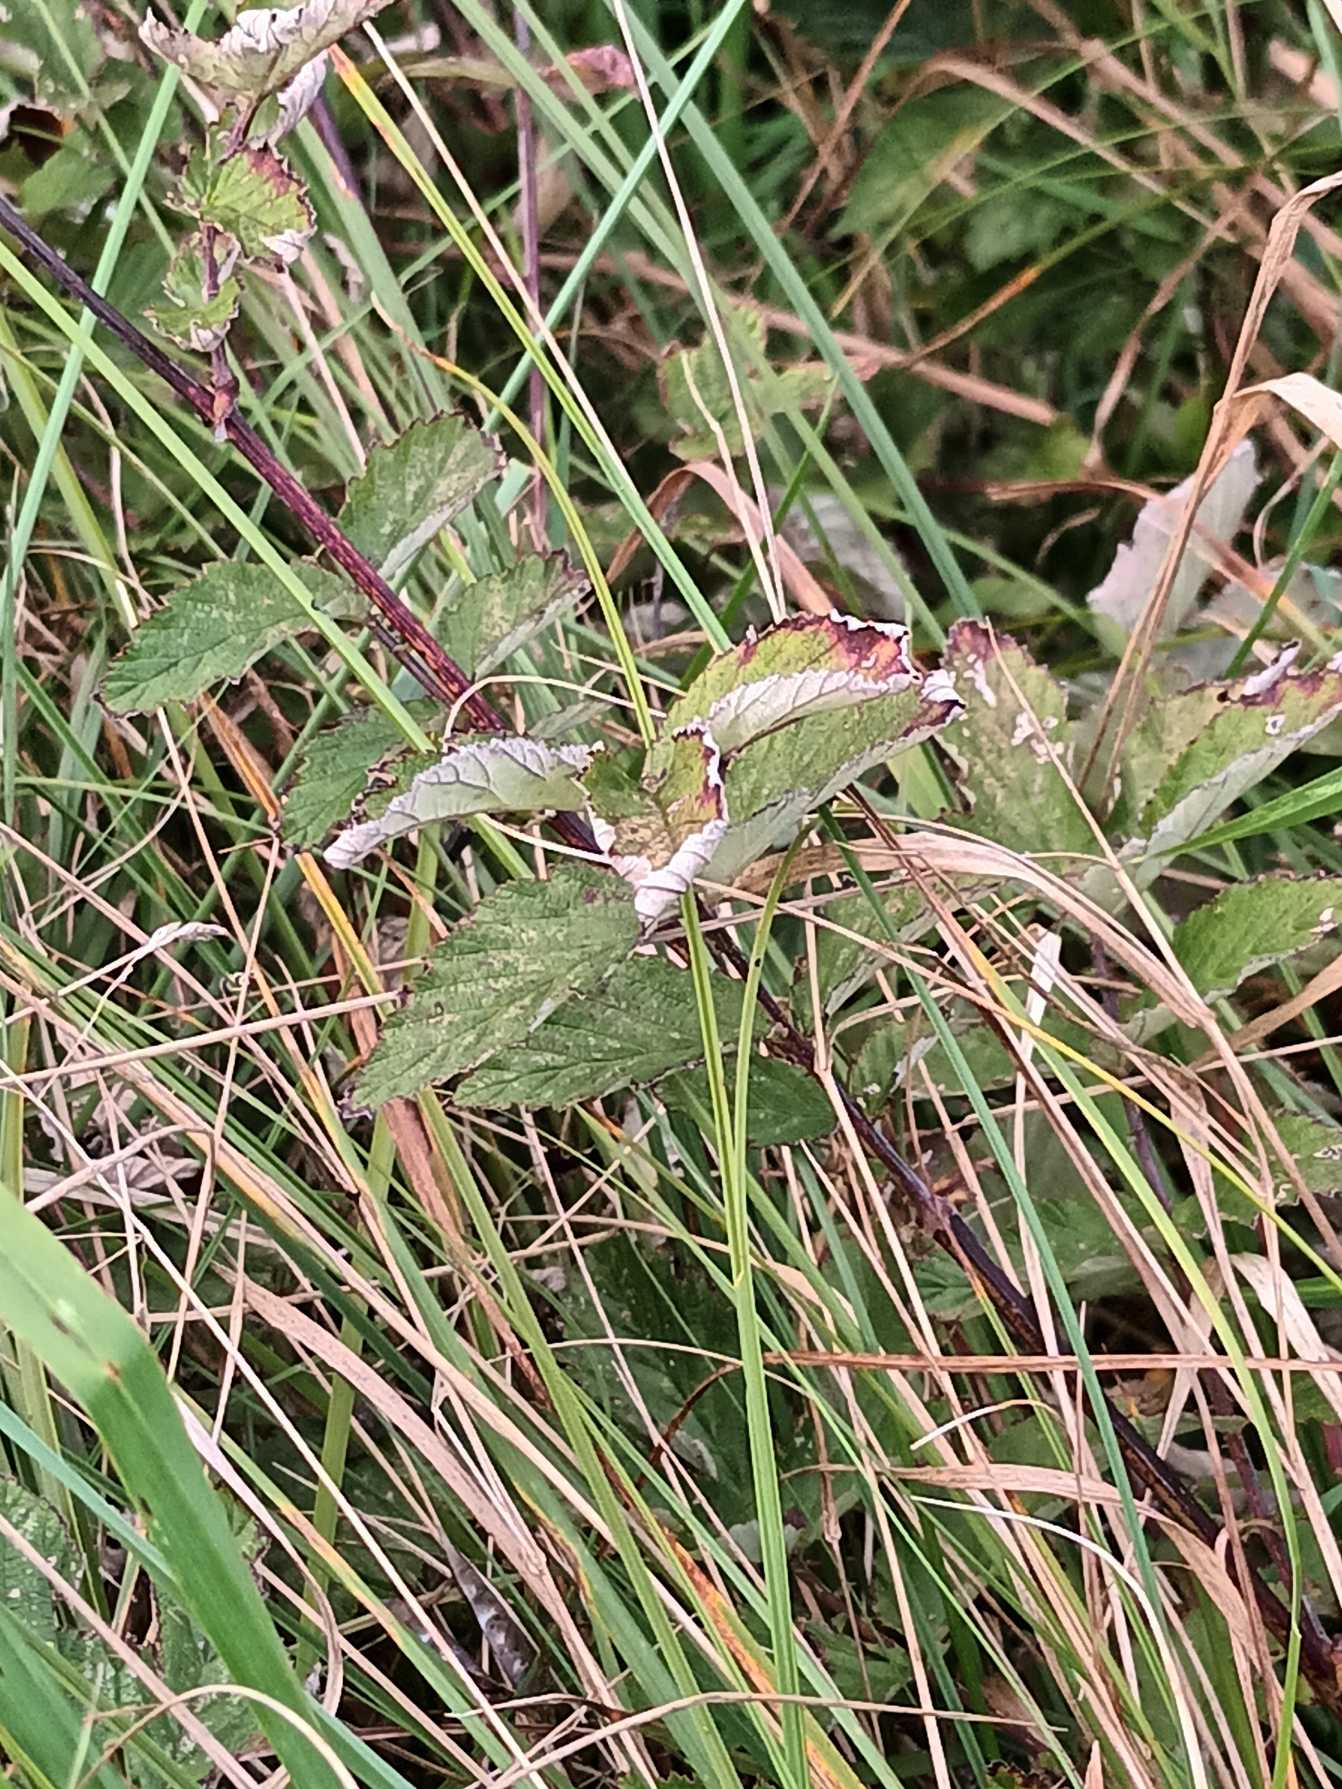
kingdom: Plantae
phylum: Tracheophyta
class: Magnoliopsida
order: Rosales
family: Rosaceae
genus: Filipendula
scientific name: Filipendula ulmaria
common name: Almindelig mjødurt
